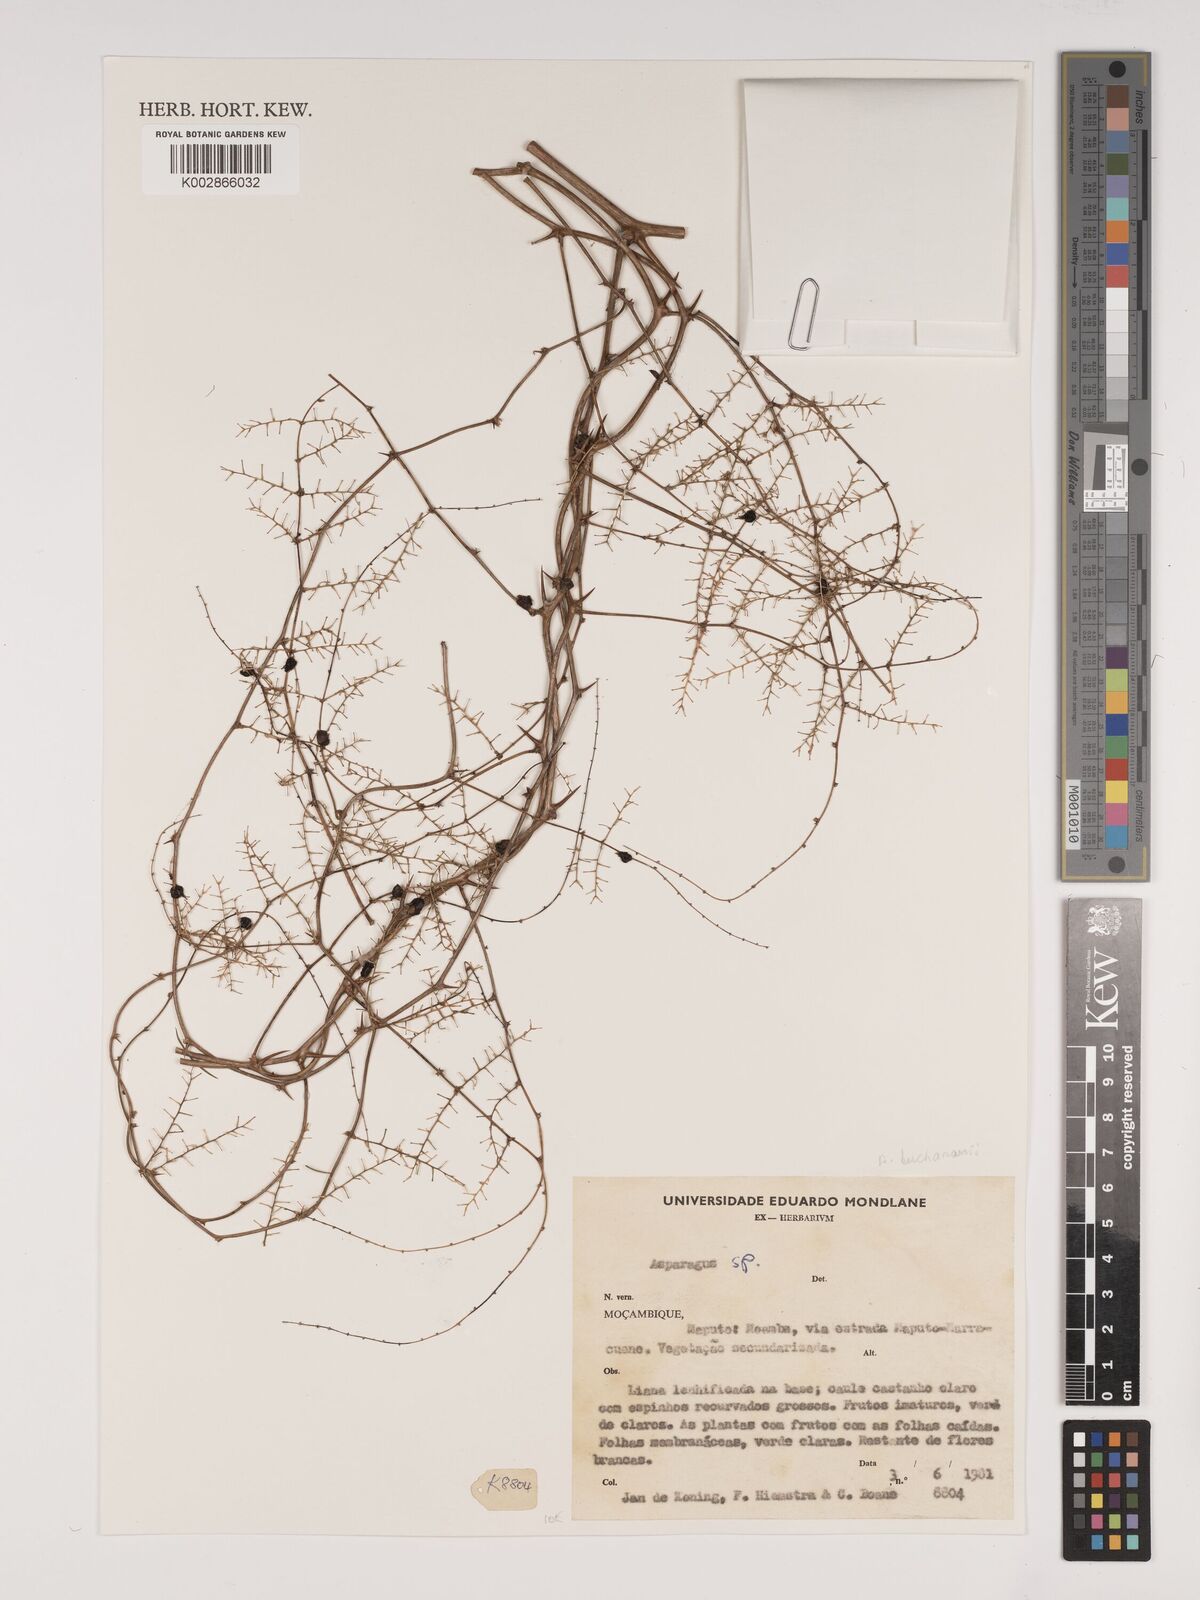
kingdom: Plantae
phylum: Tracheophyta
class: Liliopsida
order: Asparagales
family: Asparagaceae
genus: Asparagus
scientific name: Asparagus buchananii
